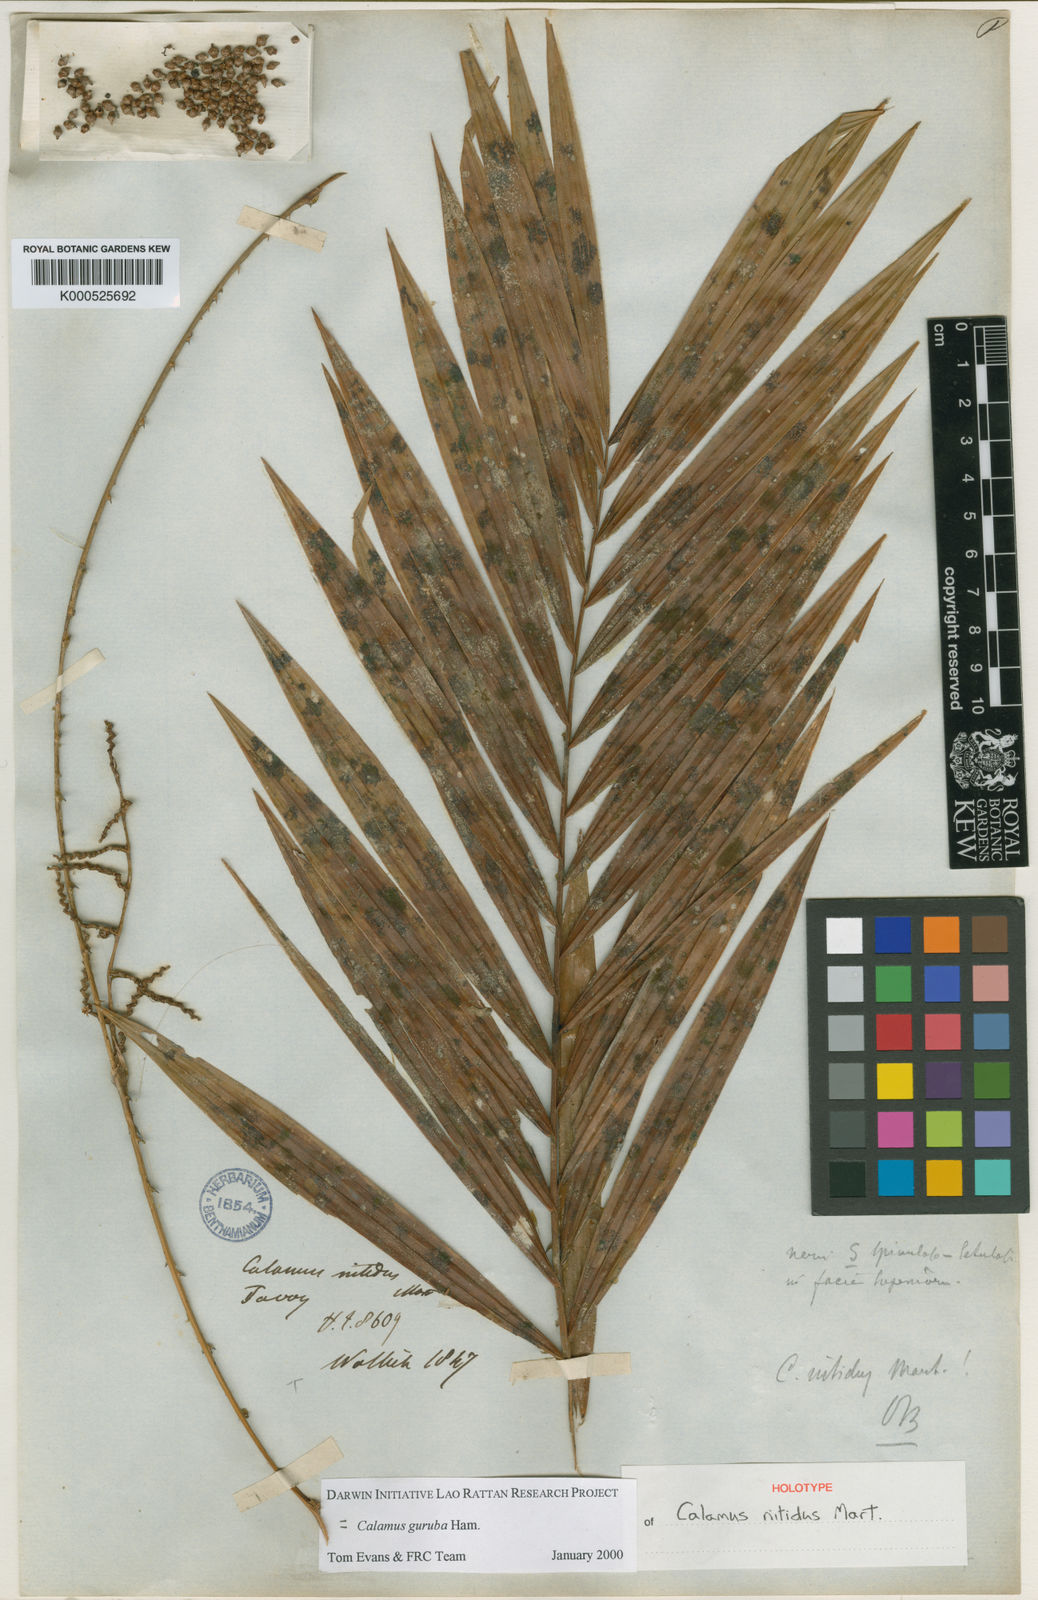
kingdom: Plantae
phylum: Tracheophyta
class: Liliopsida
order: Arecales
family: Arecaceae
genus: Calamus
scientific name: Calamus guruba
